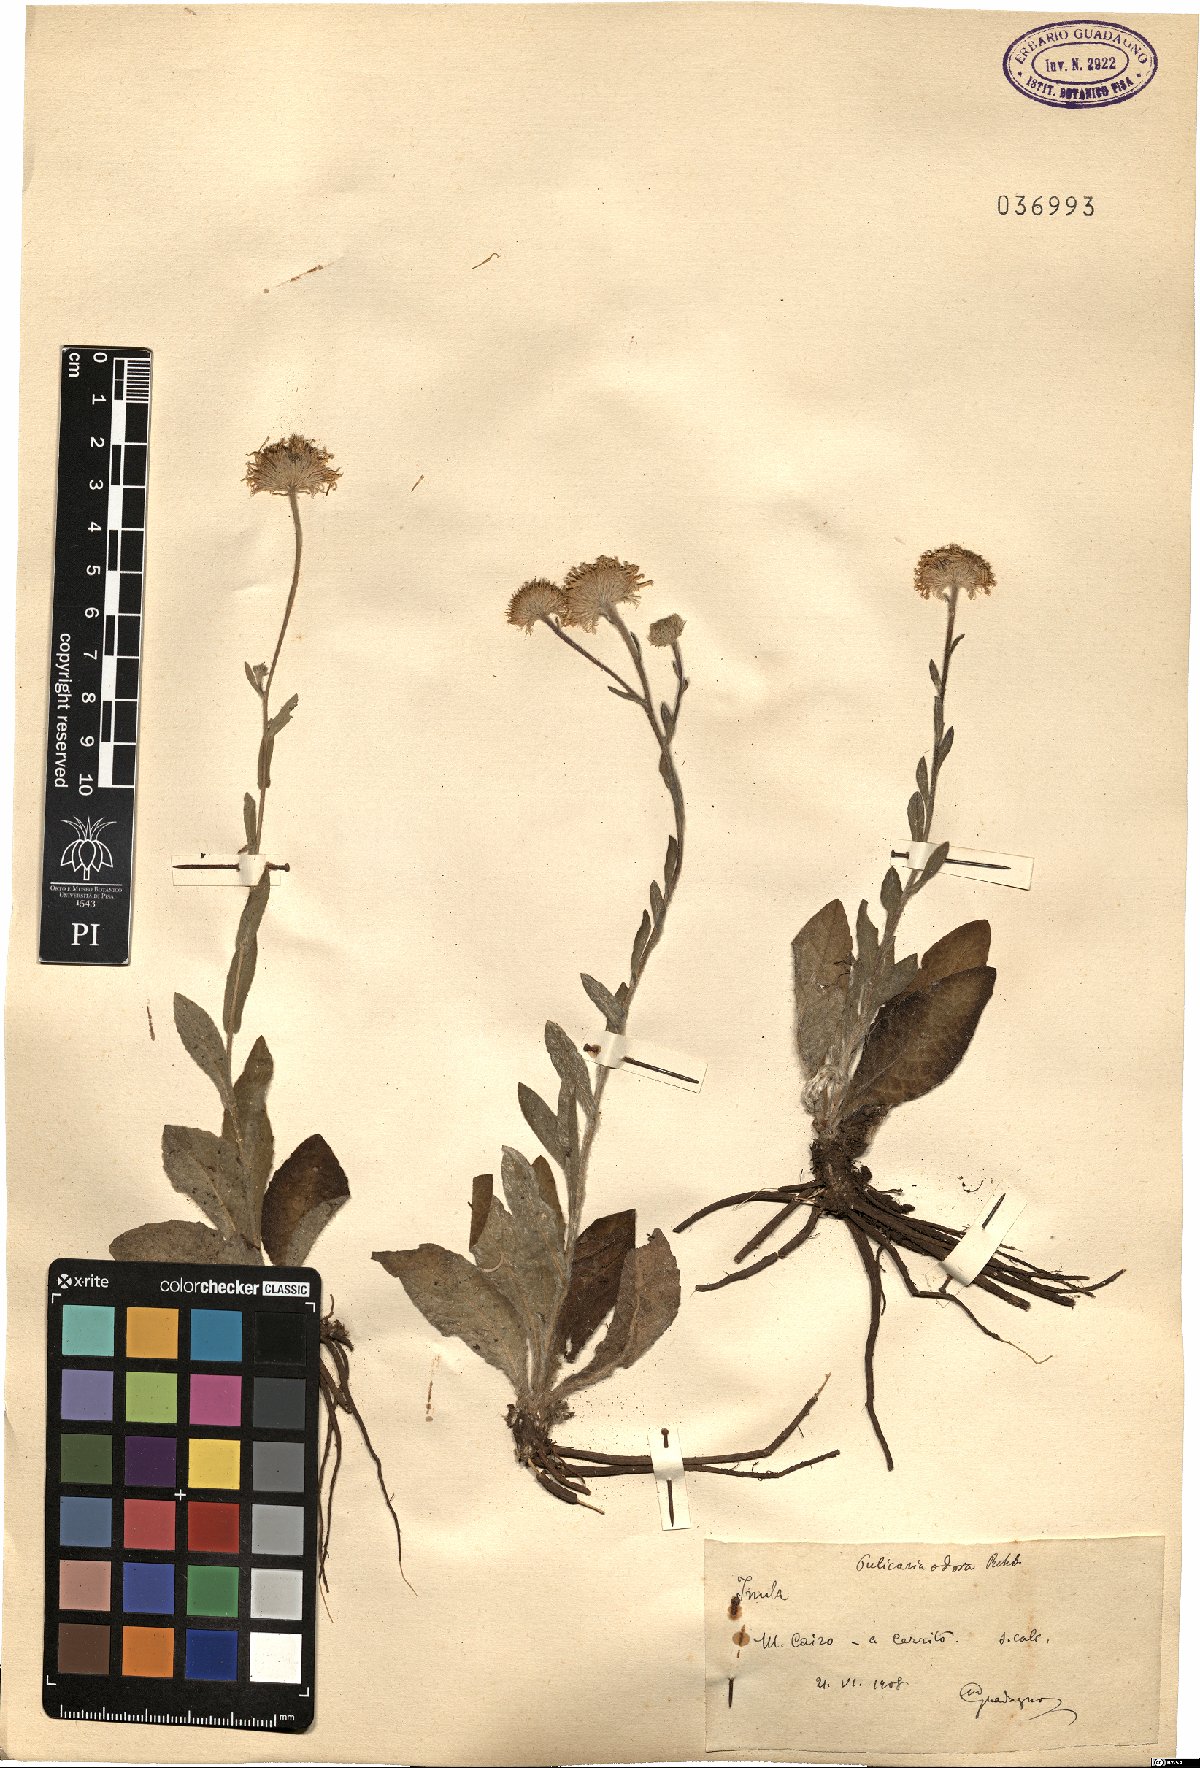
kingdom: Plantae
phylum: Tracheophyta
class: Magnoliopsida
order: Asterales
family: Asteraceae
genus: Pulicaria
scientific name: Pulicaria odora
